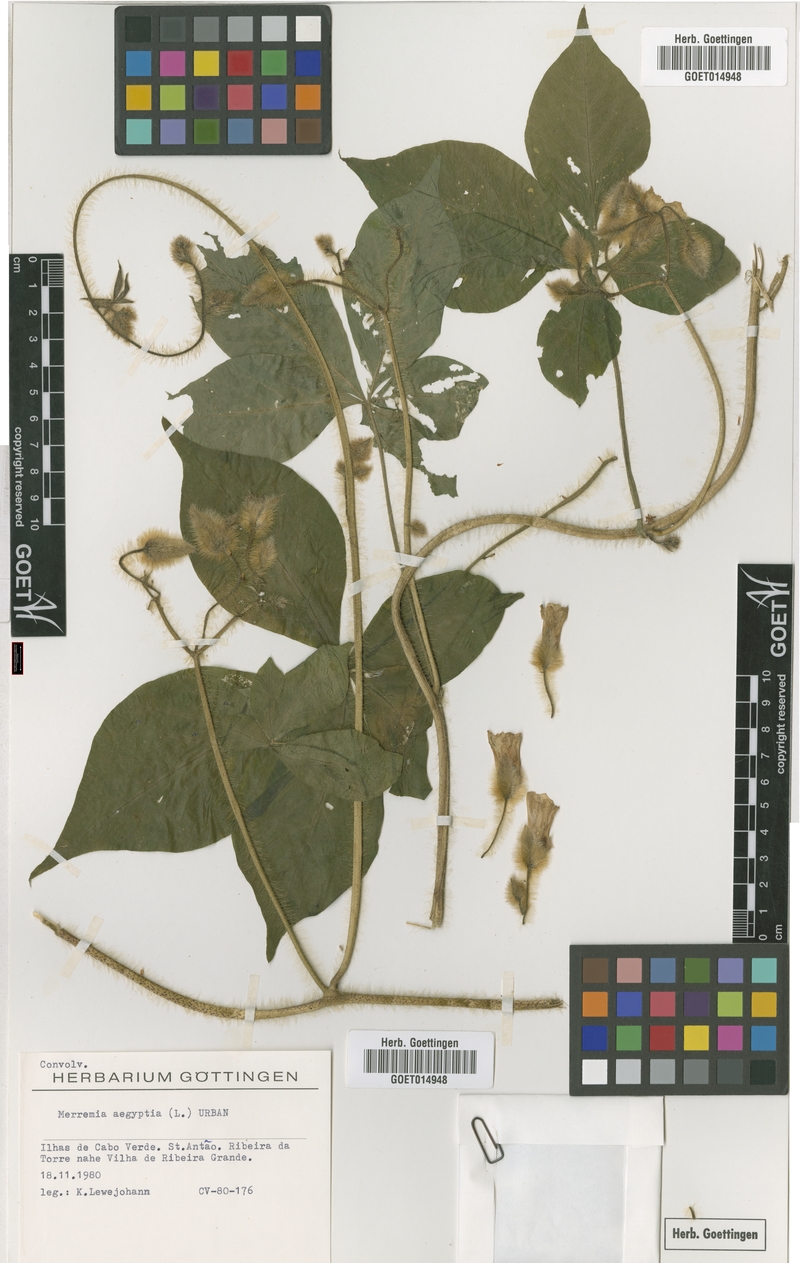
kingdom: Plantae
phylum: Tracheophyta
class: Magnoliopsida
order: Solanales
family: Convolvulaceae
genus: Distimake
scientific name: Distimake aegyptius
